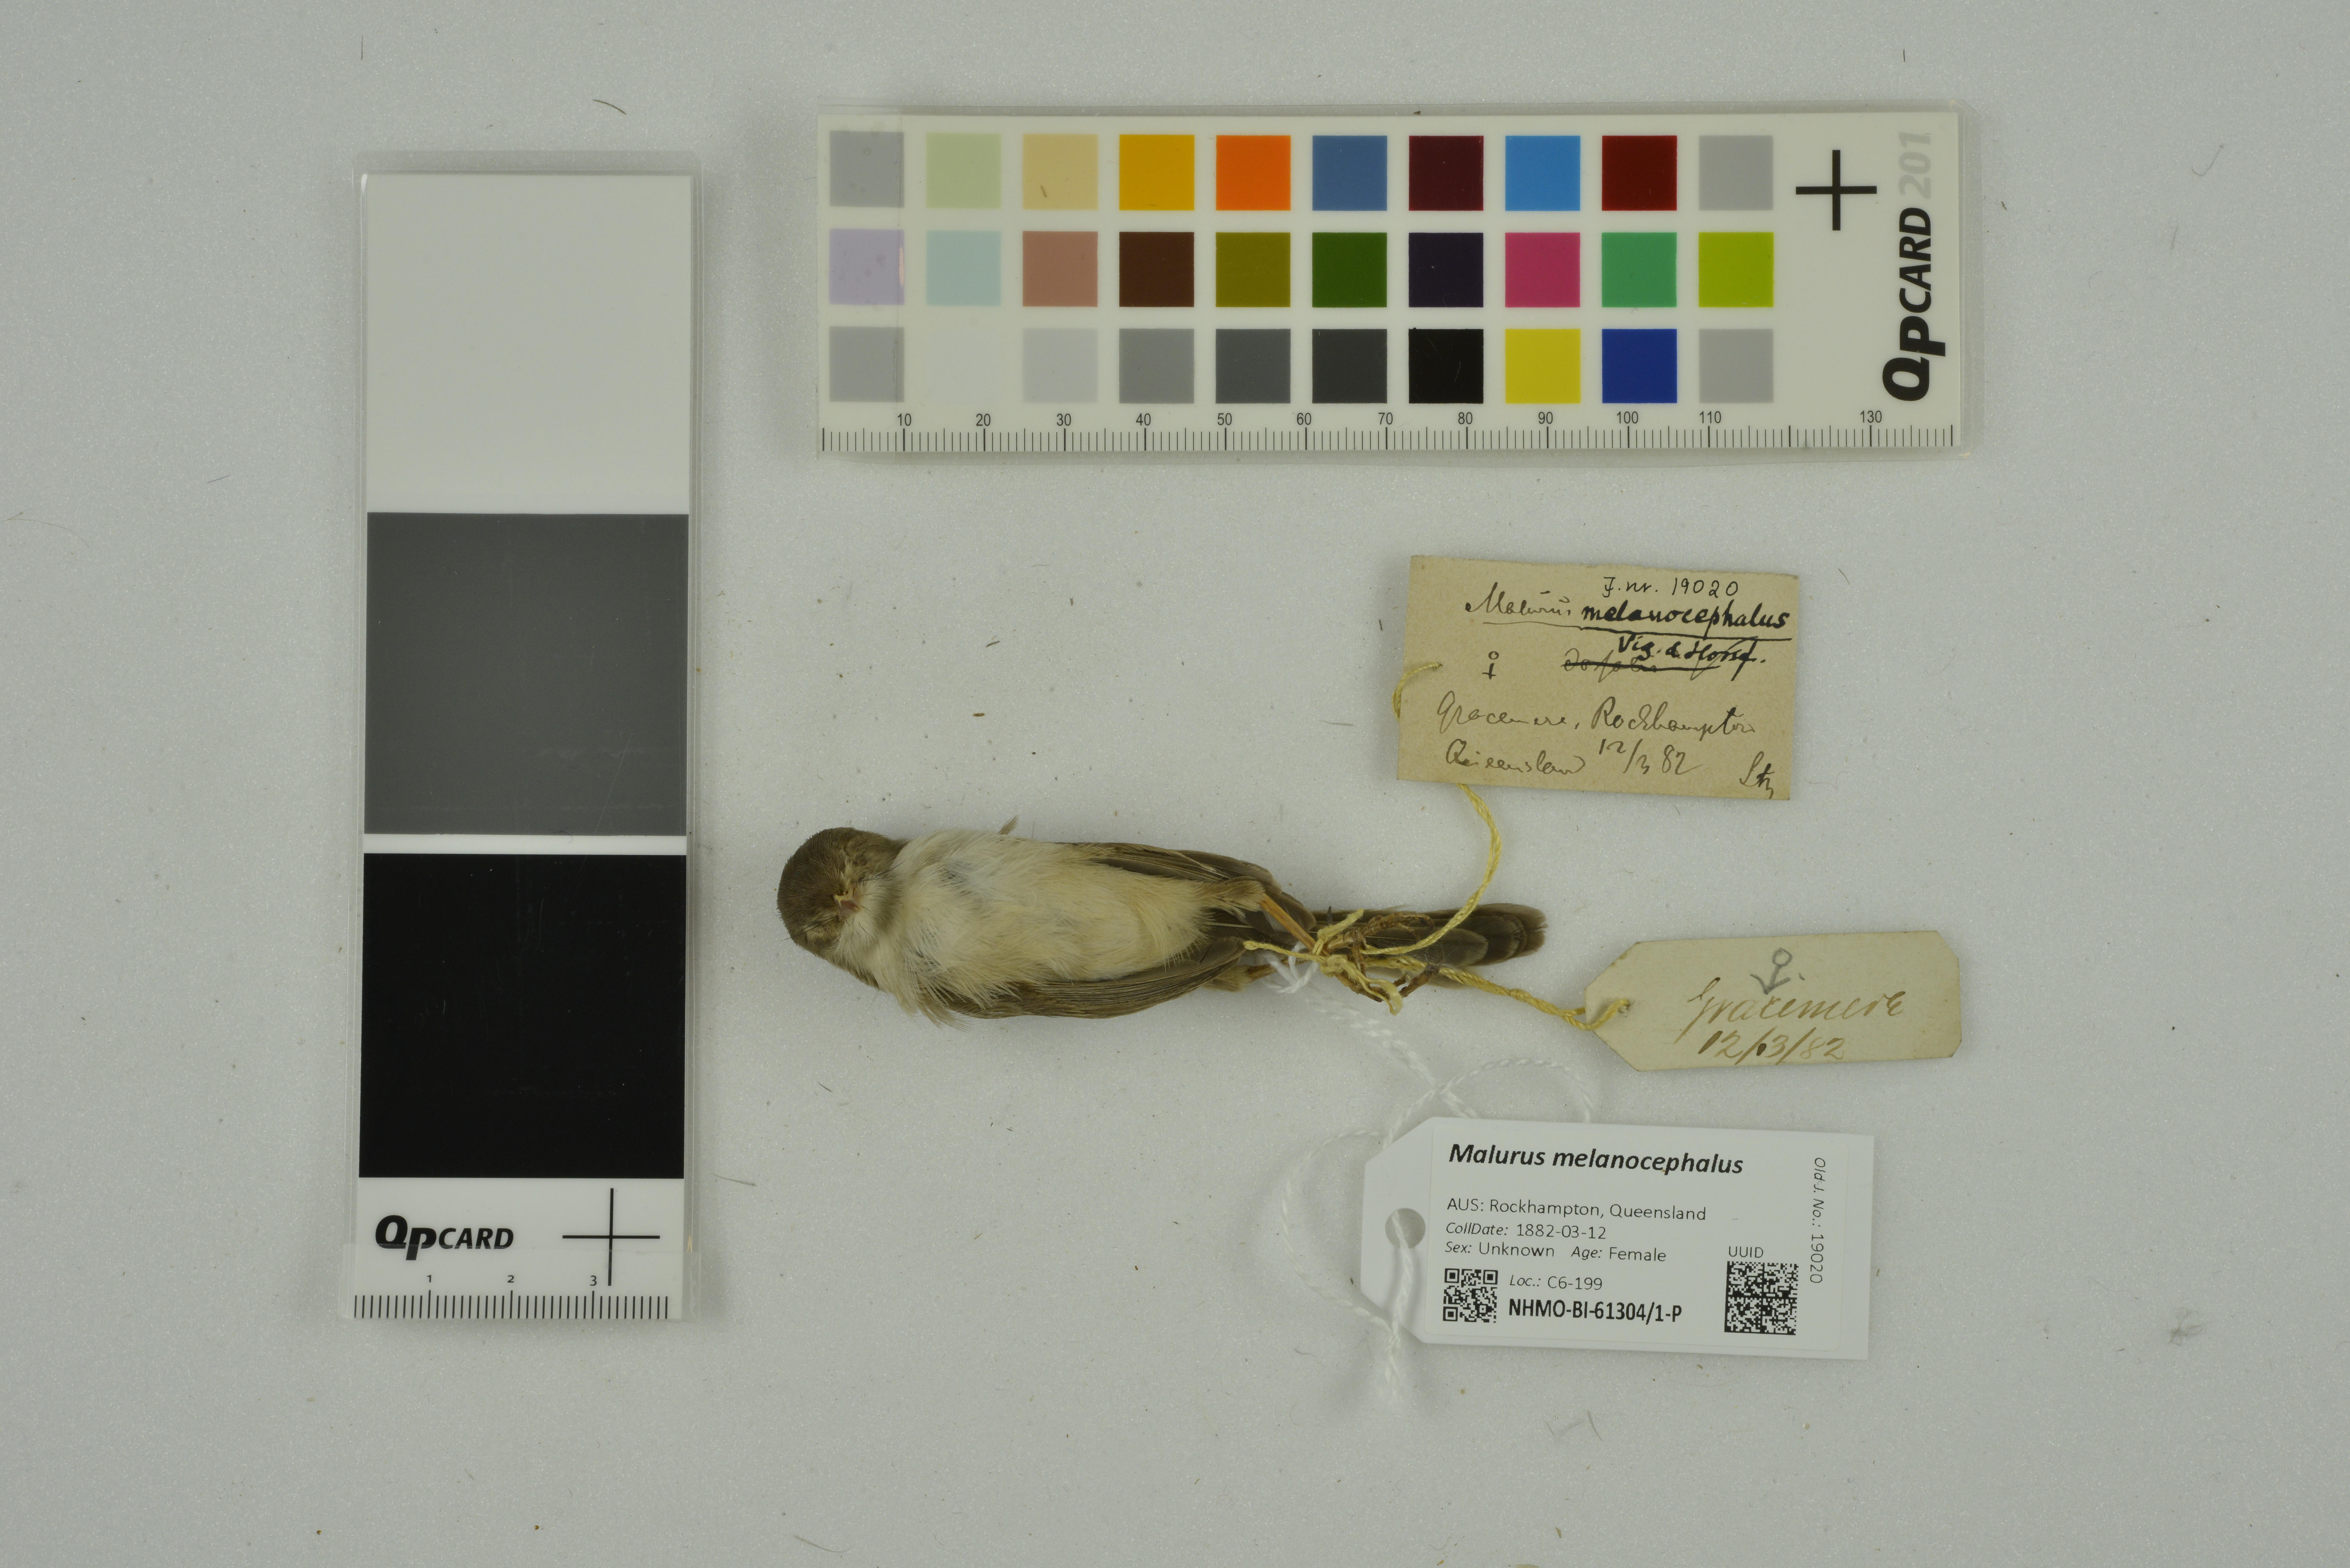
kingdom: Animalia
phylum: Chordata
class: Aves
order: Passeriformes
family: Maluridae
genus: Malurus
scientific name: Malurus melanocephalus
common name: Red-backed fairywren
